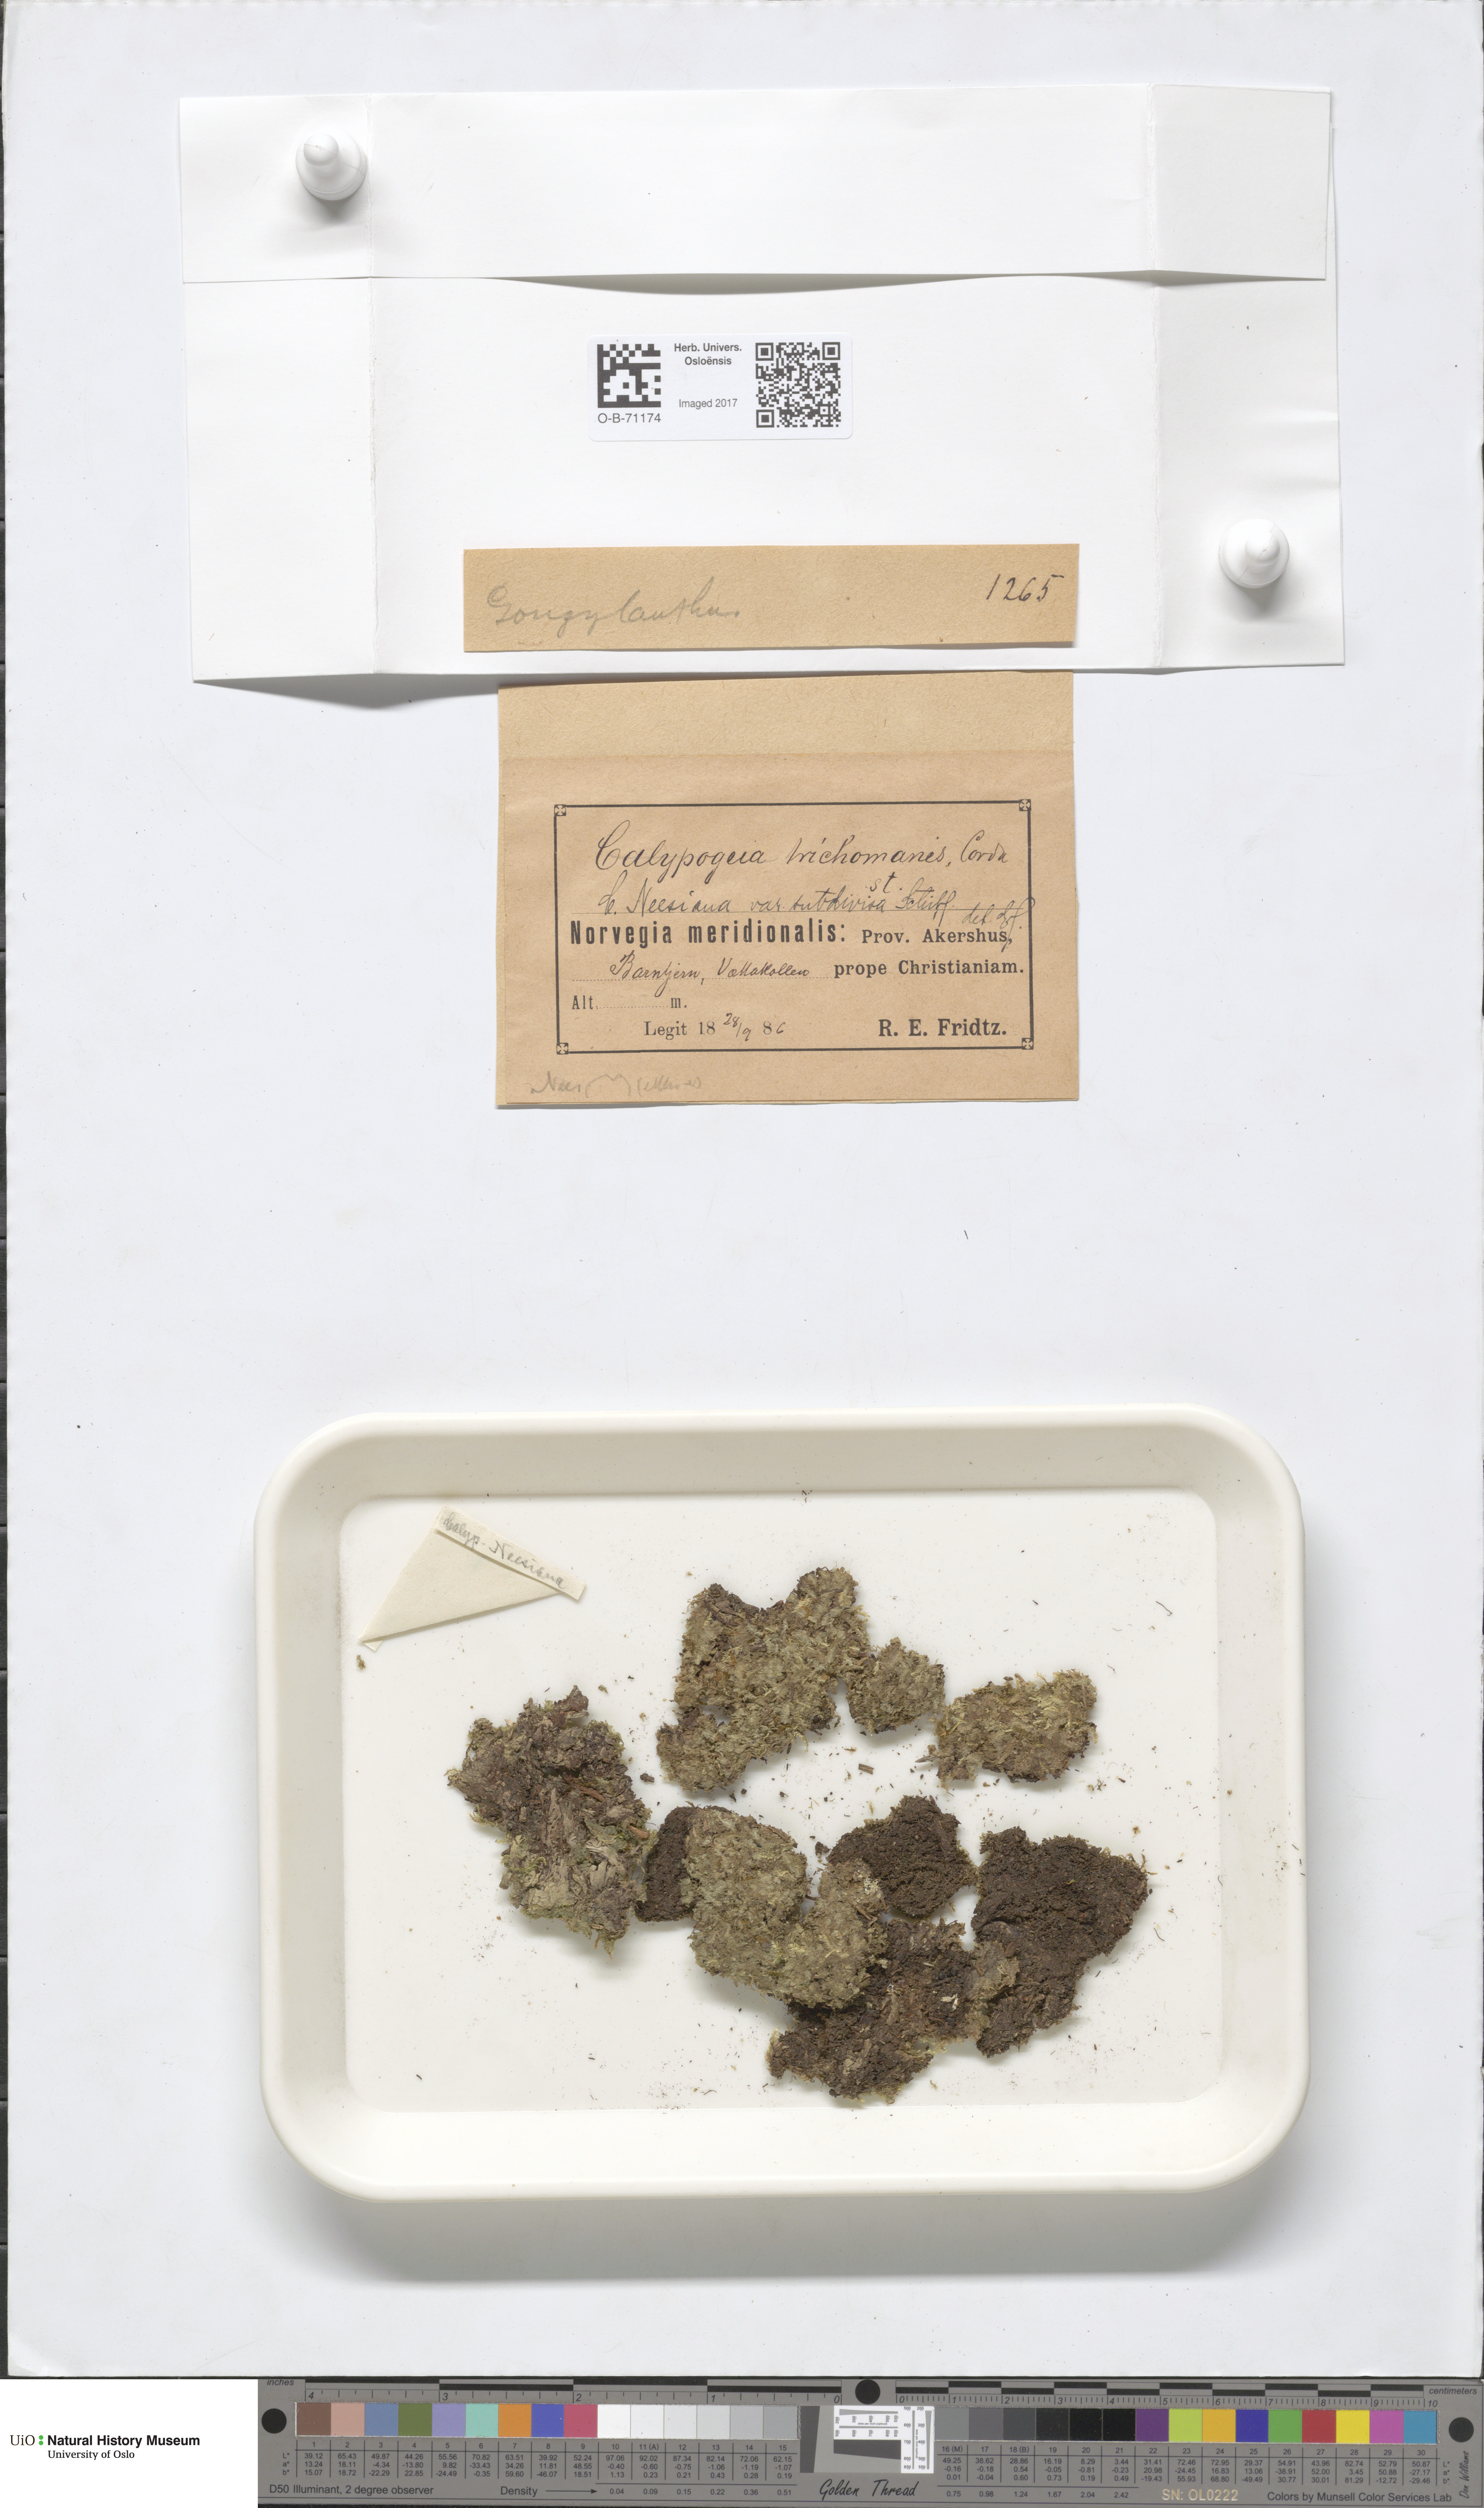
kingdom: Plantae
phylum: Marchantiophyta
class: Jungermanniopsida
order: Jungermanniales
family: Calypogeiaceae
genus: Calypogeia
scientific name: Calypogeia neesiana
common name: Nees  pouchwort
